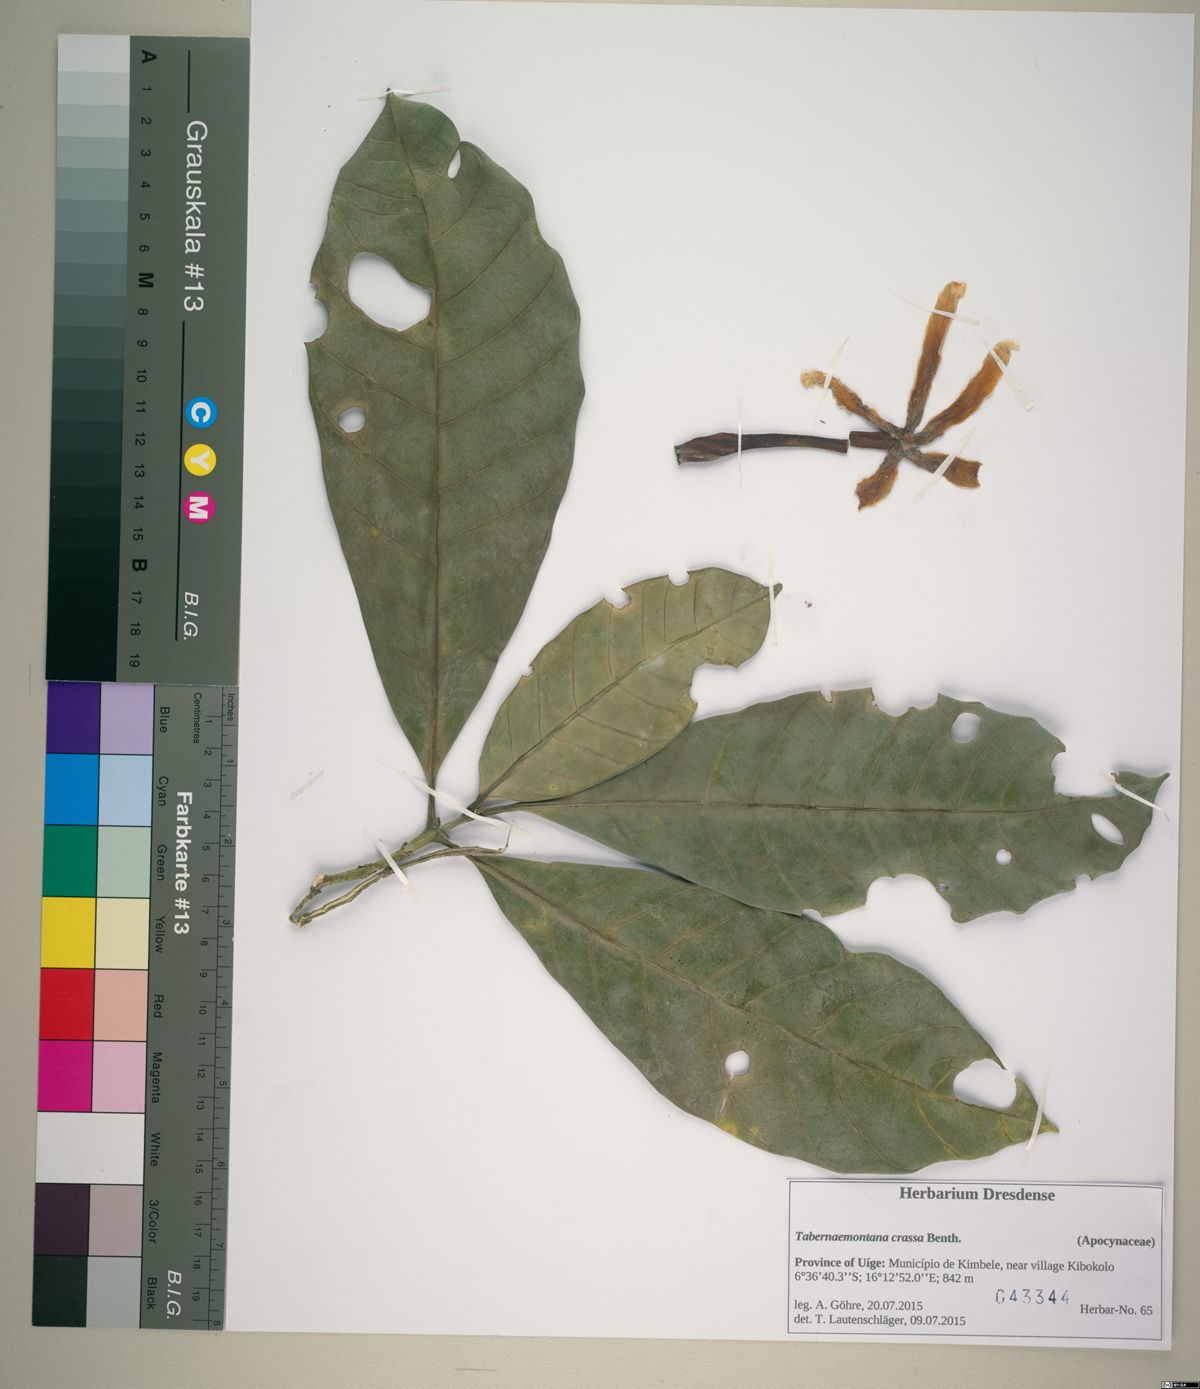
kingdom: Plantae
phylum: Tracheophyta
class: Magnoliopsida
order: Gentianales
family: Apocynaceae
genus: Tabernaemontana
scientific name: Tabernaemontana crassa
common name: Adam's-apple-flower
